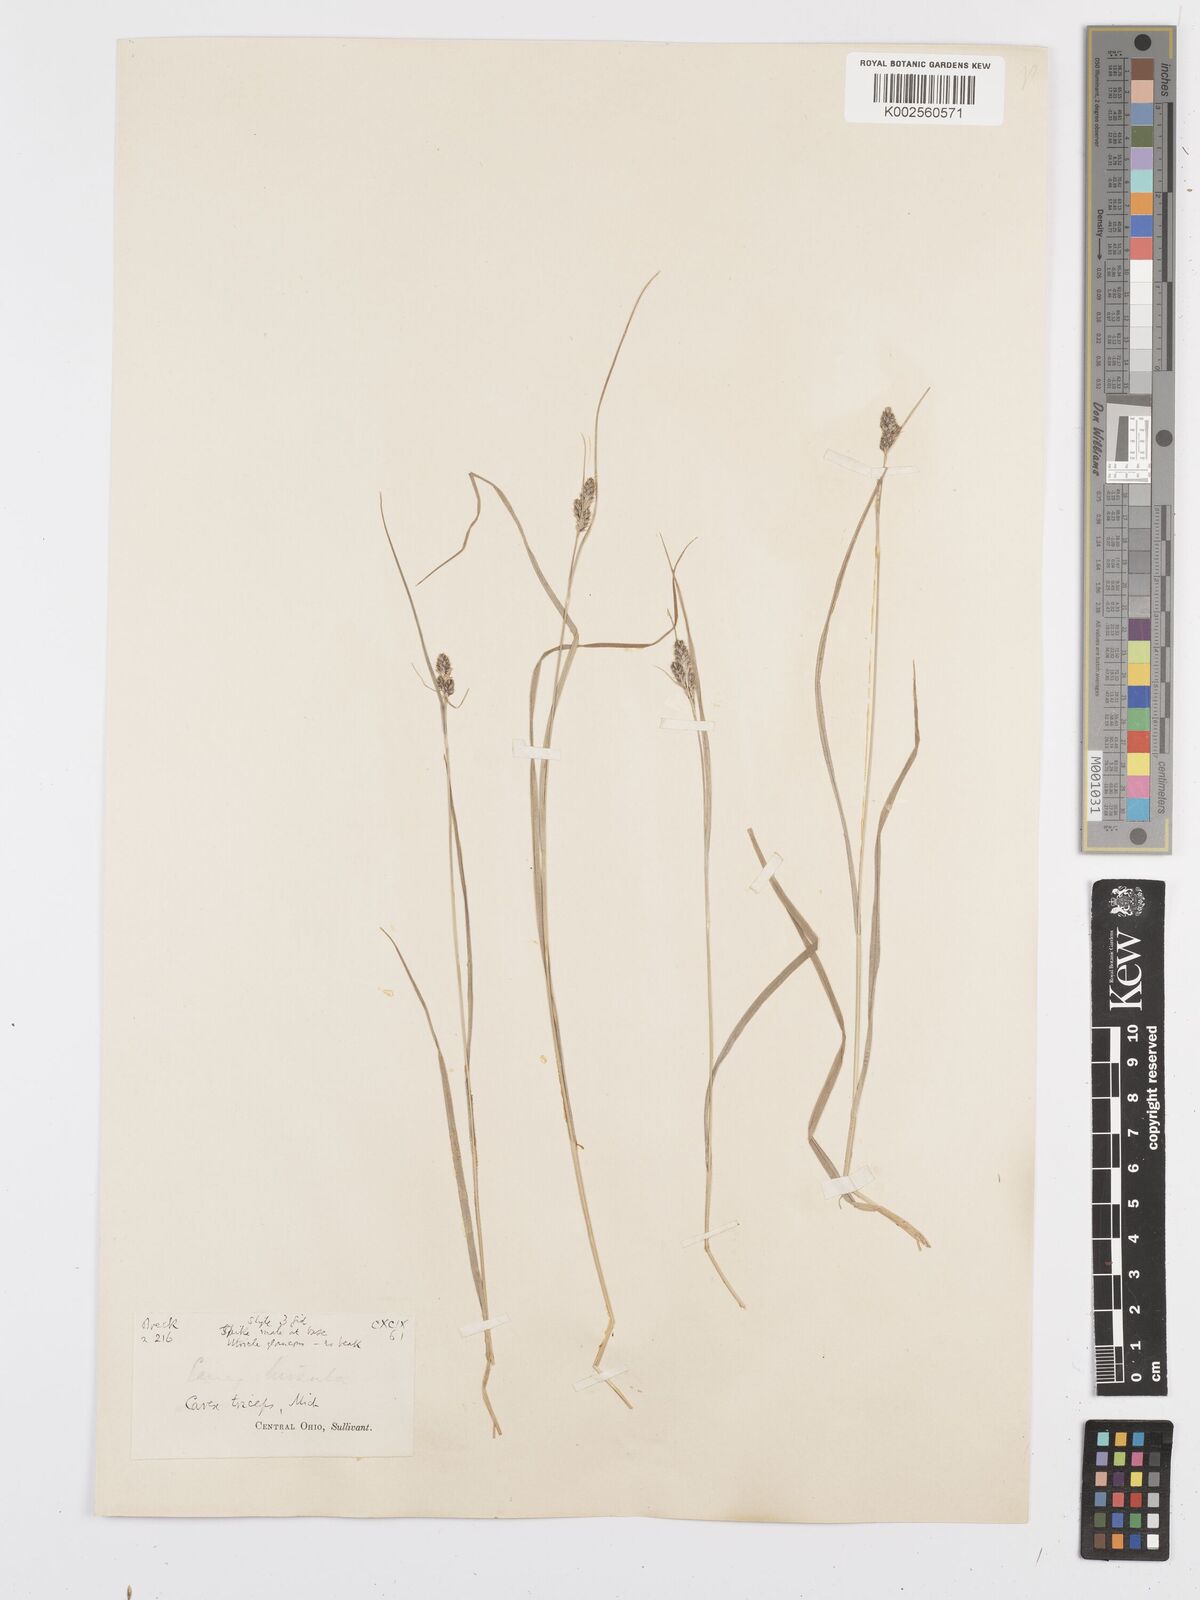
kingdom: Plantae
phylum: Tracheophyta
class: Liliopsida
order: Poales
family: Cyperaceae
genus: Carex
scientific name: Carex complanata
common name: Hirsute sedge
